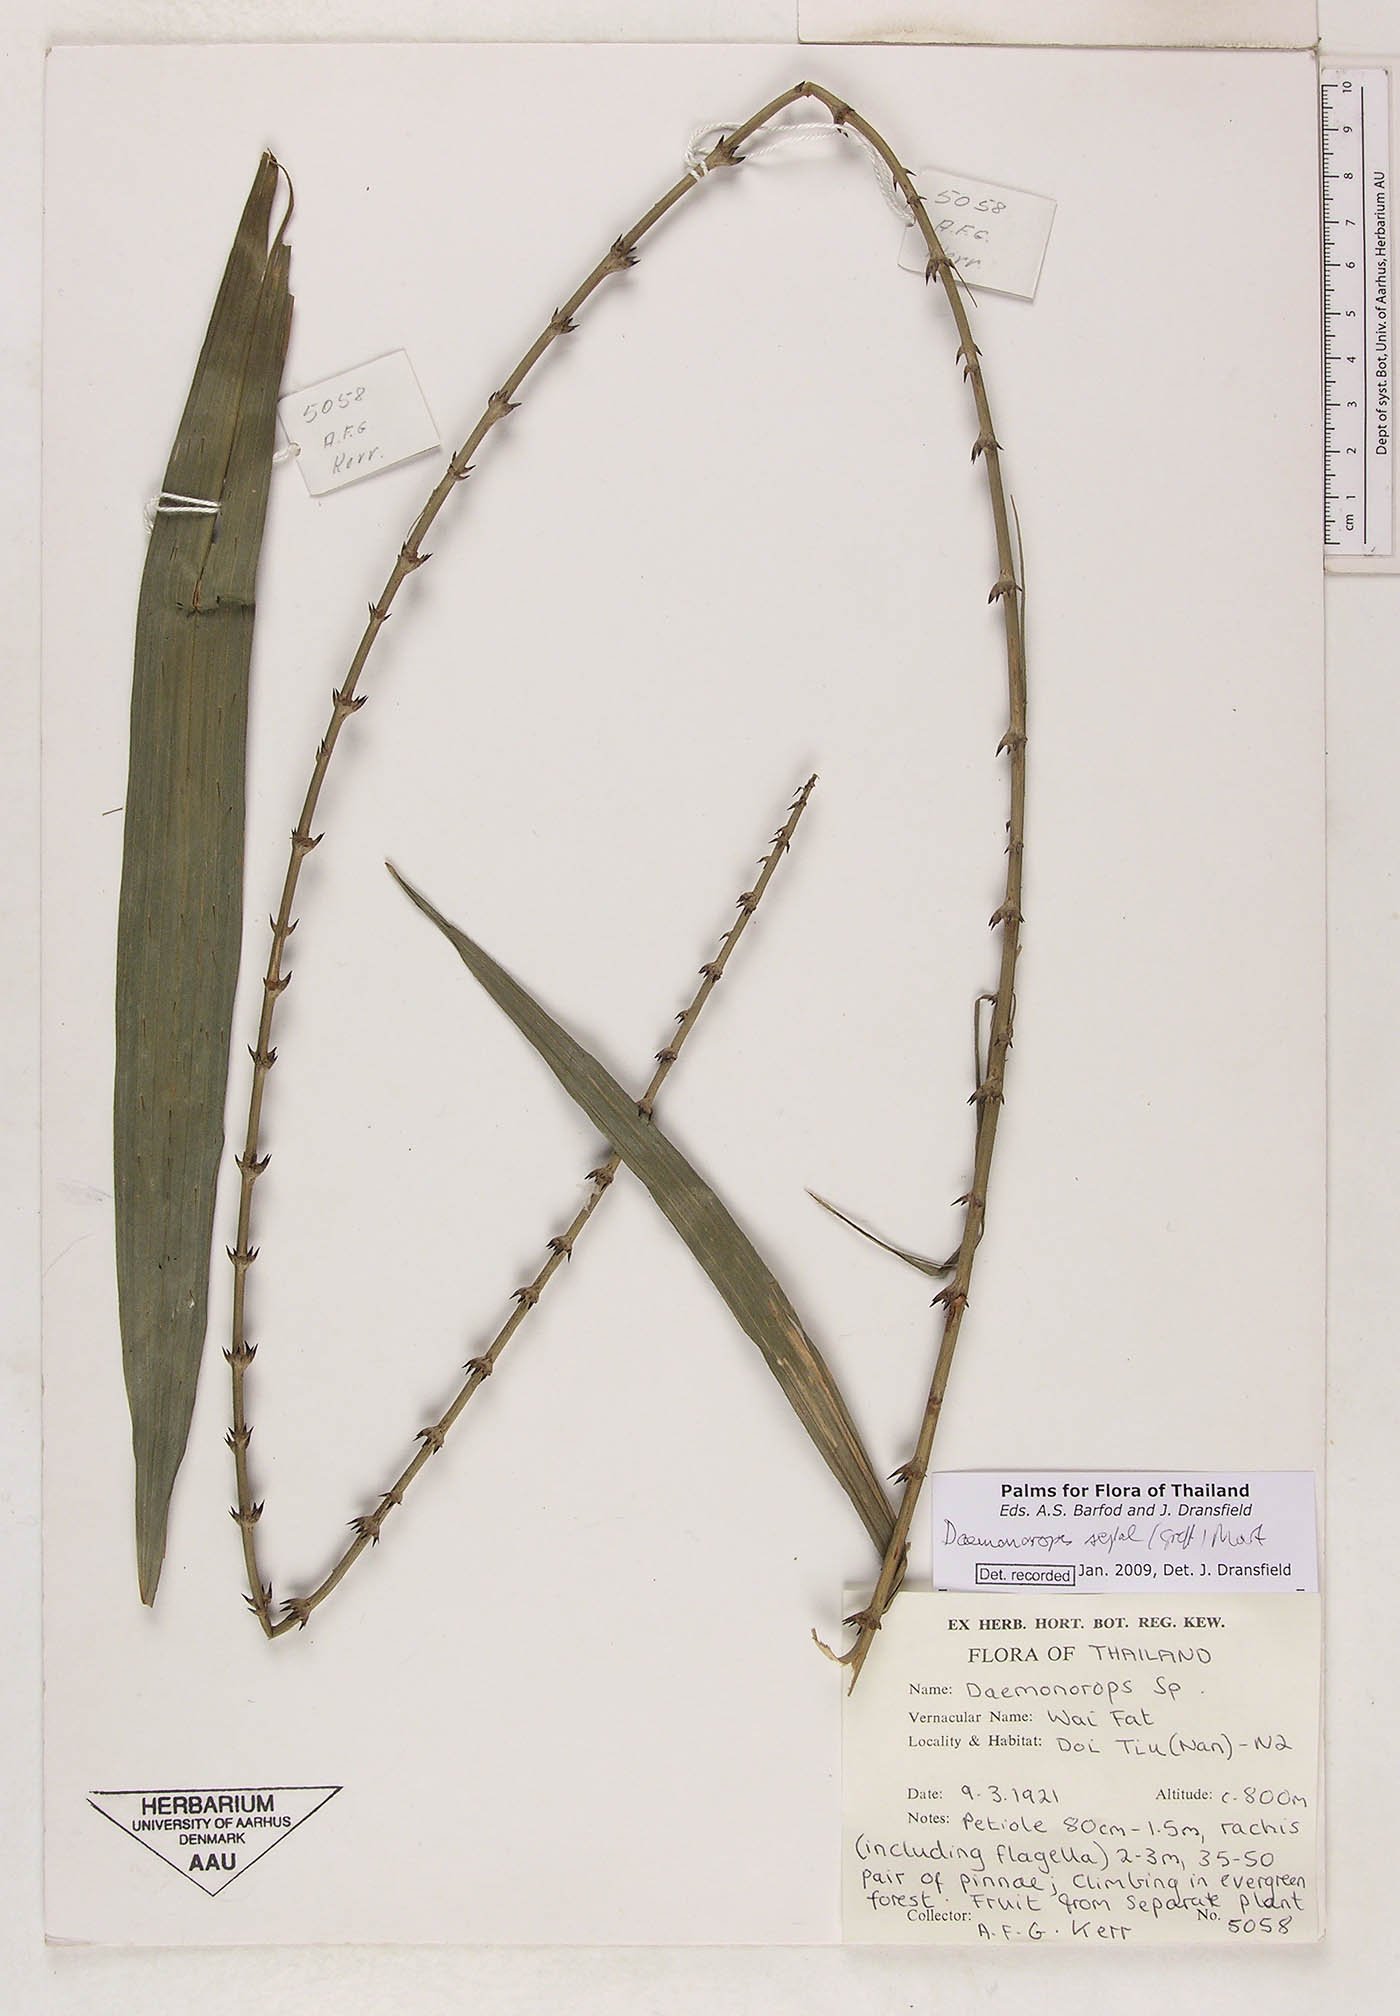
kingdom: Plantae
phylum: Tracheophyta
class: Liliopsida
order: Arecales
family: Arecaceae
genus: Calamus
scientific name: Calamus melanochaetes
